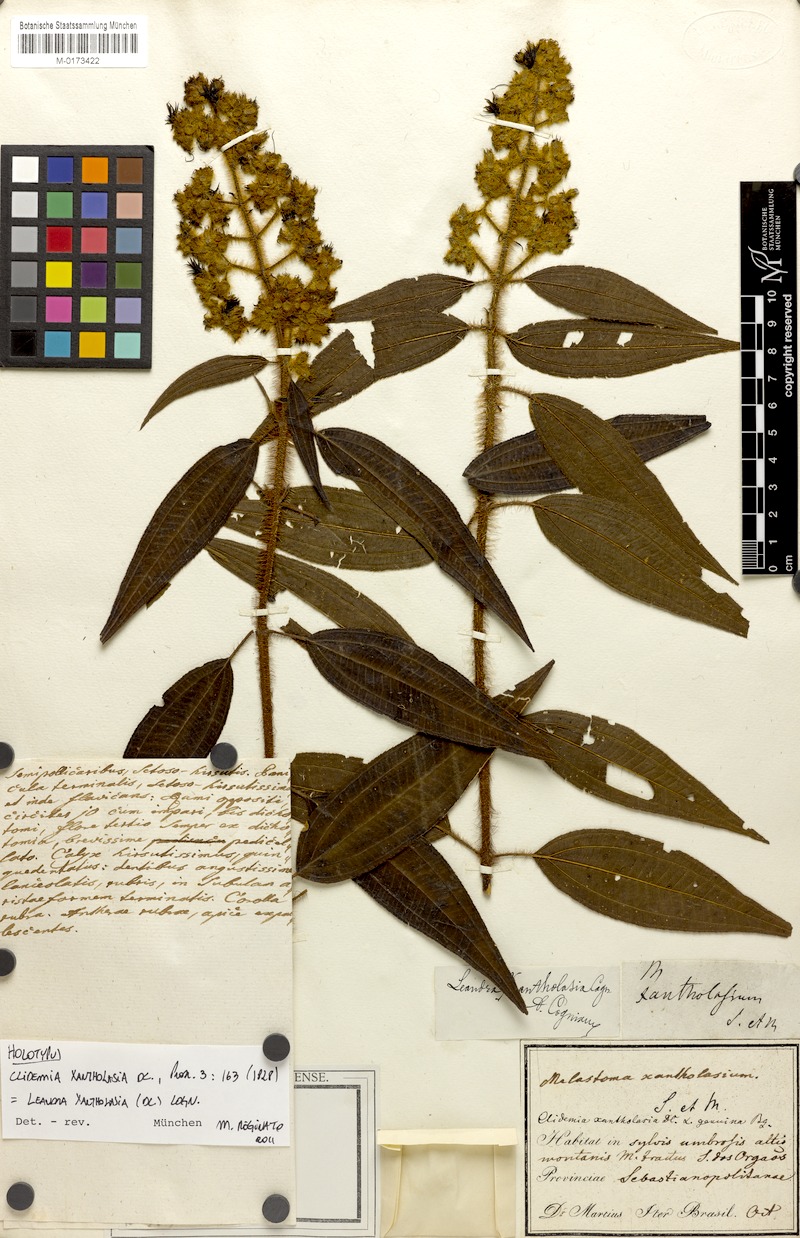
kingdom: Plantae
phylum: Tracheophyta
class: Magnoliopsida
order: Myrtales
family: Melastomataceae
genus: Miconia
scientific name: Miconia xantholasia
